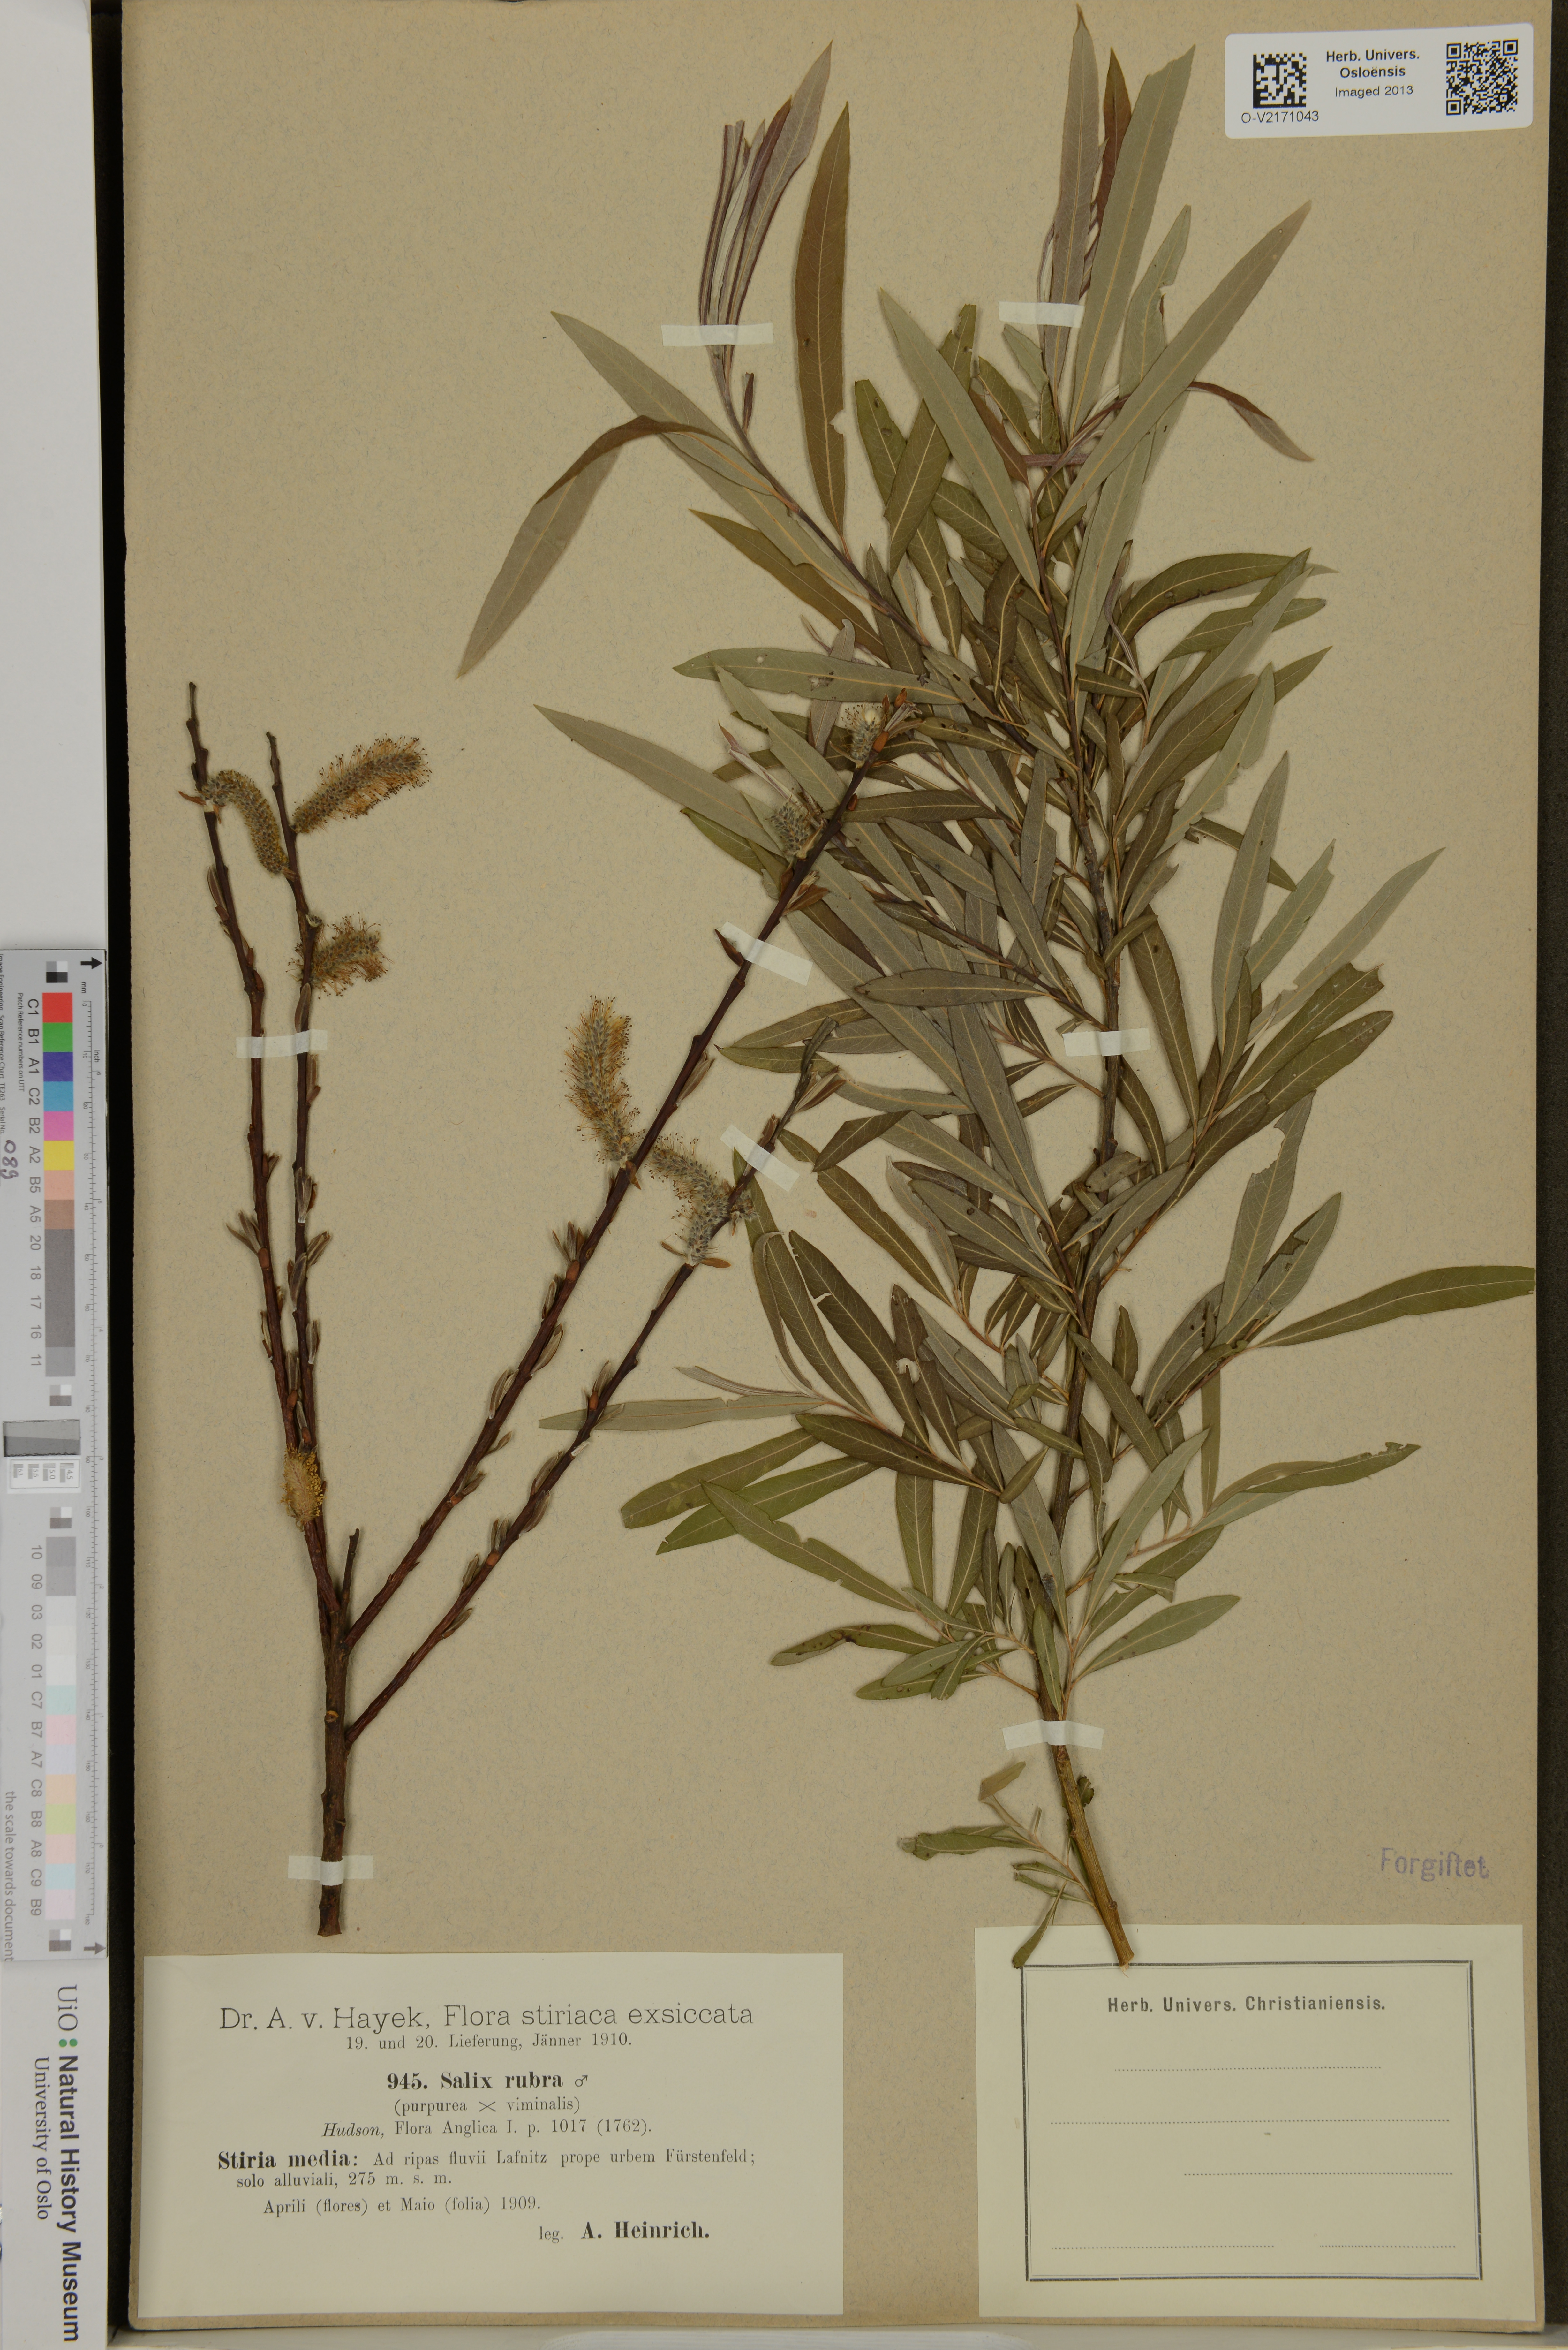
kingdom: Plantae
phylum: Tracheophyta
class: Magnoliopsida
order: Malpighiales
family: Salicaceae
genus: Salix
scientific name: Salix rubra
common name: Green-leaf willow
